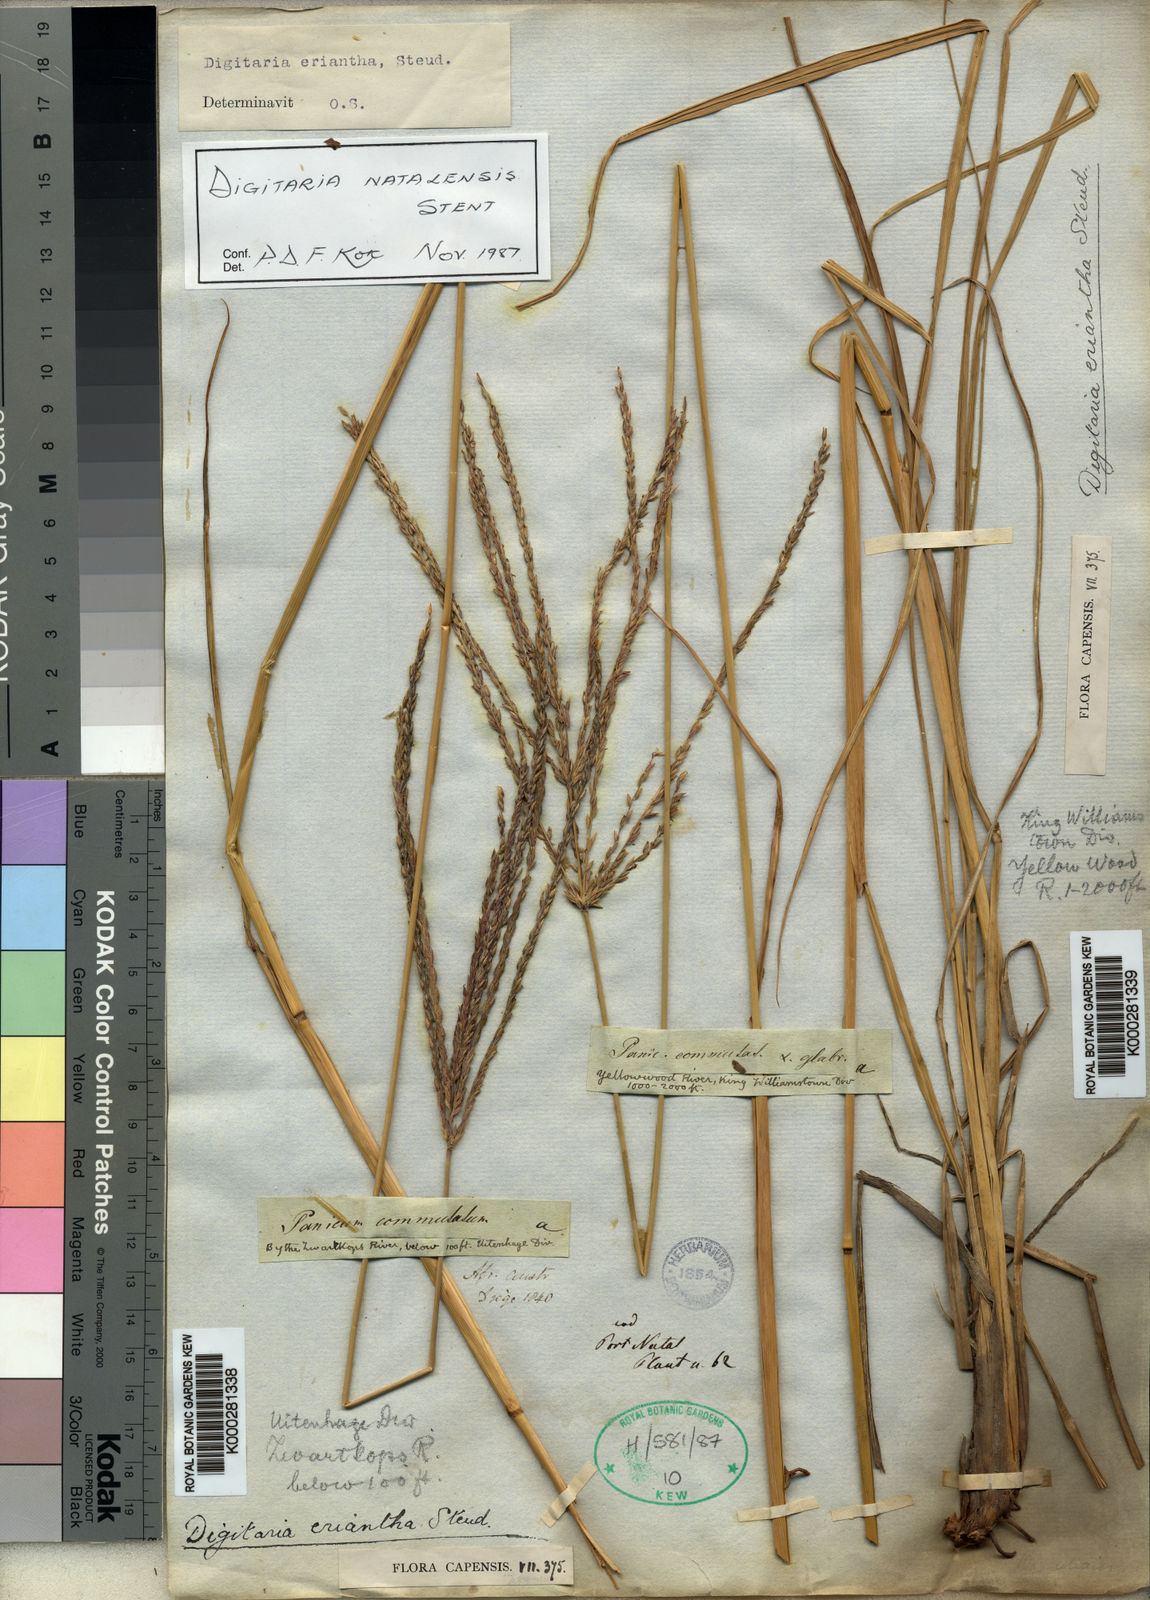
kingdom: Plantae
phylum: Tracheophyta
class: Liliopsida
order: Poales
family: Poaceae
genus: Digitaria
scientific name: Digitaria eriantha
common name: Digitgrass
